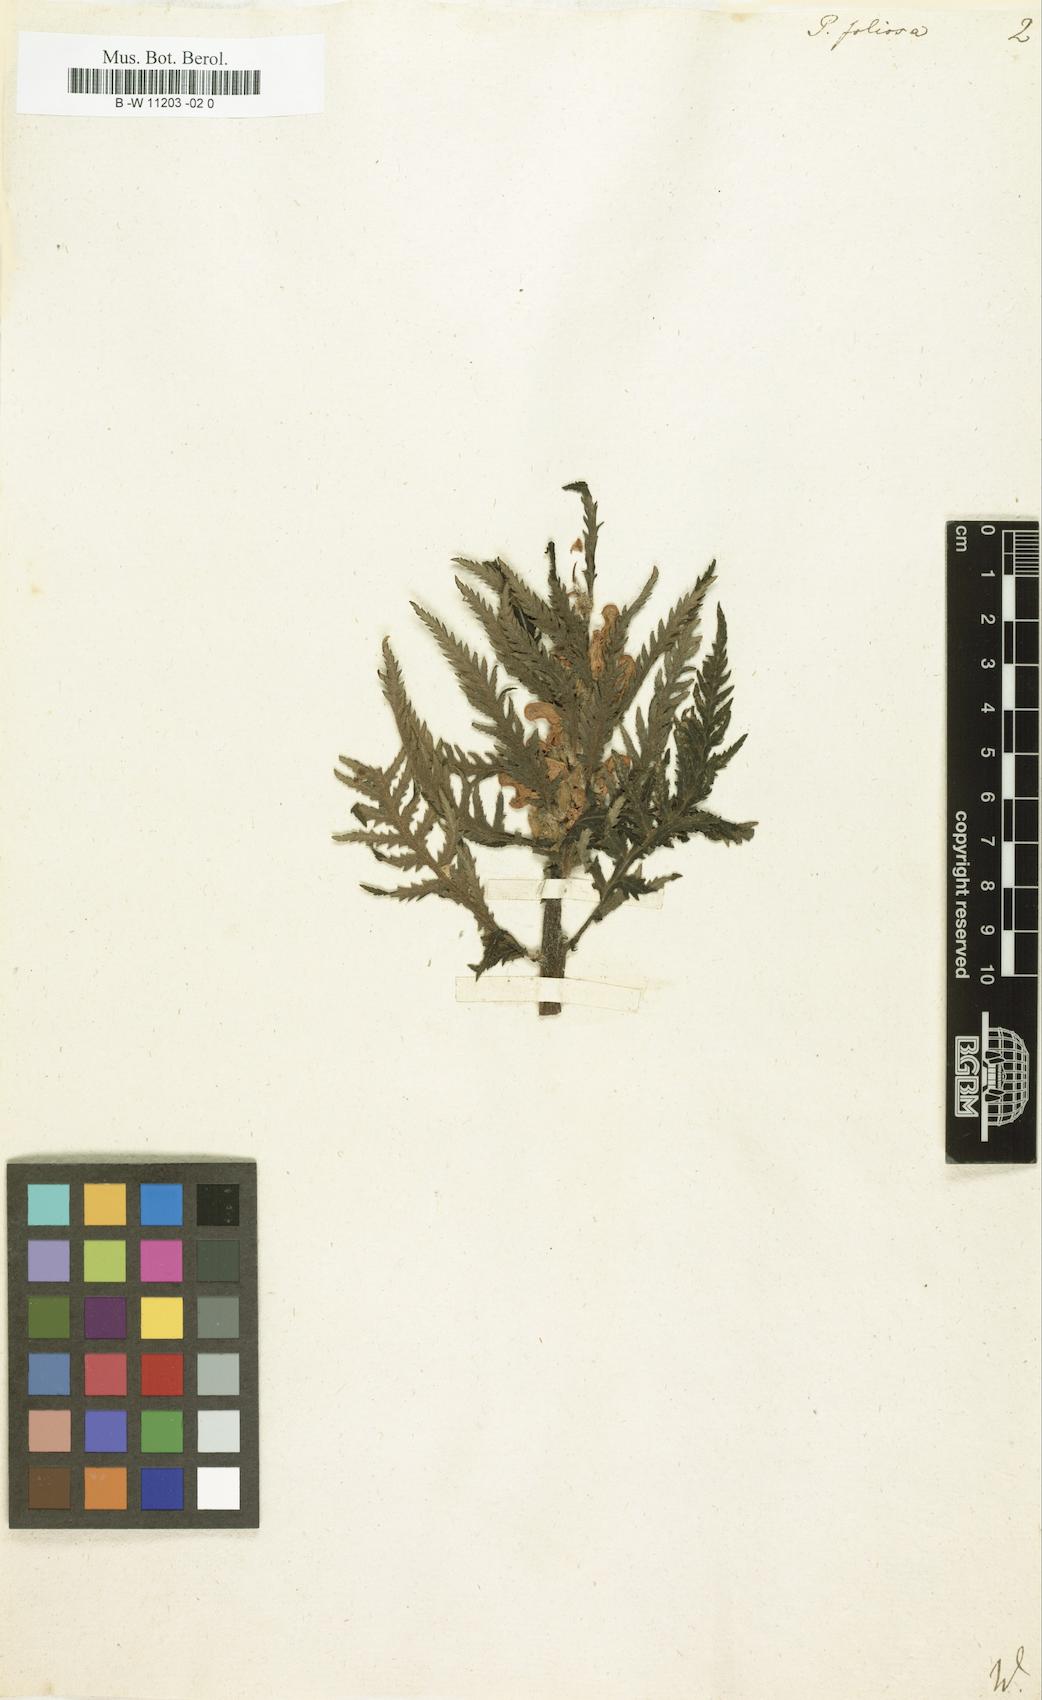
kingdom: Plantae
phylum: Tracheophyta
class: Magnoliopsida
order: Lamiales
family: Orobanchaceae
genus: Pedicularis
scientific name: Pedicularis foliosa
